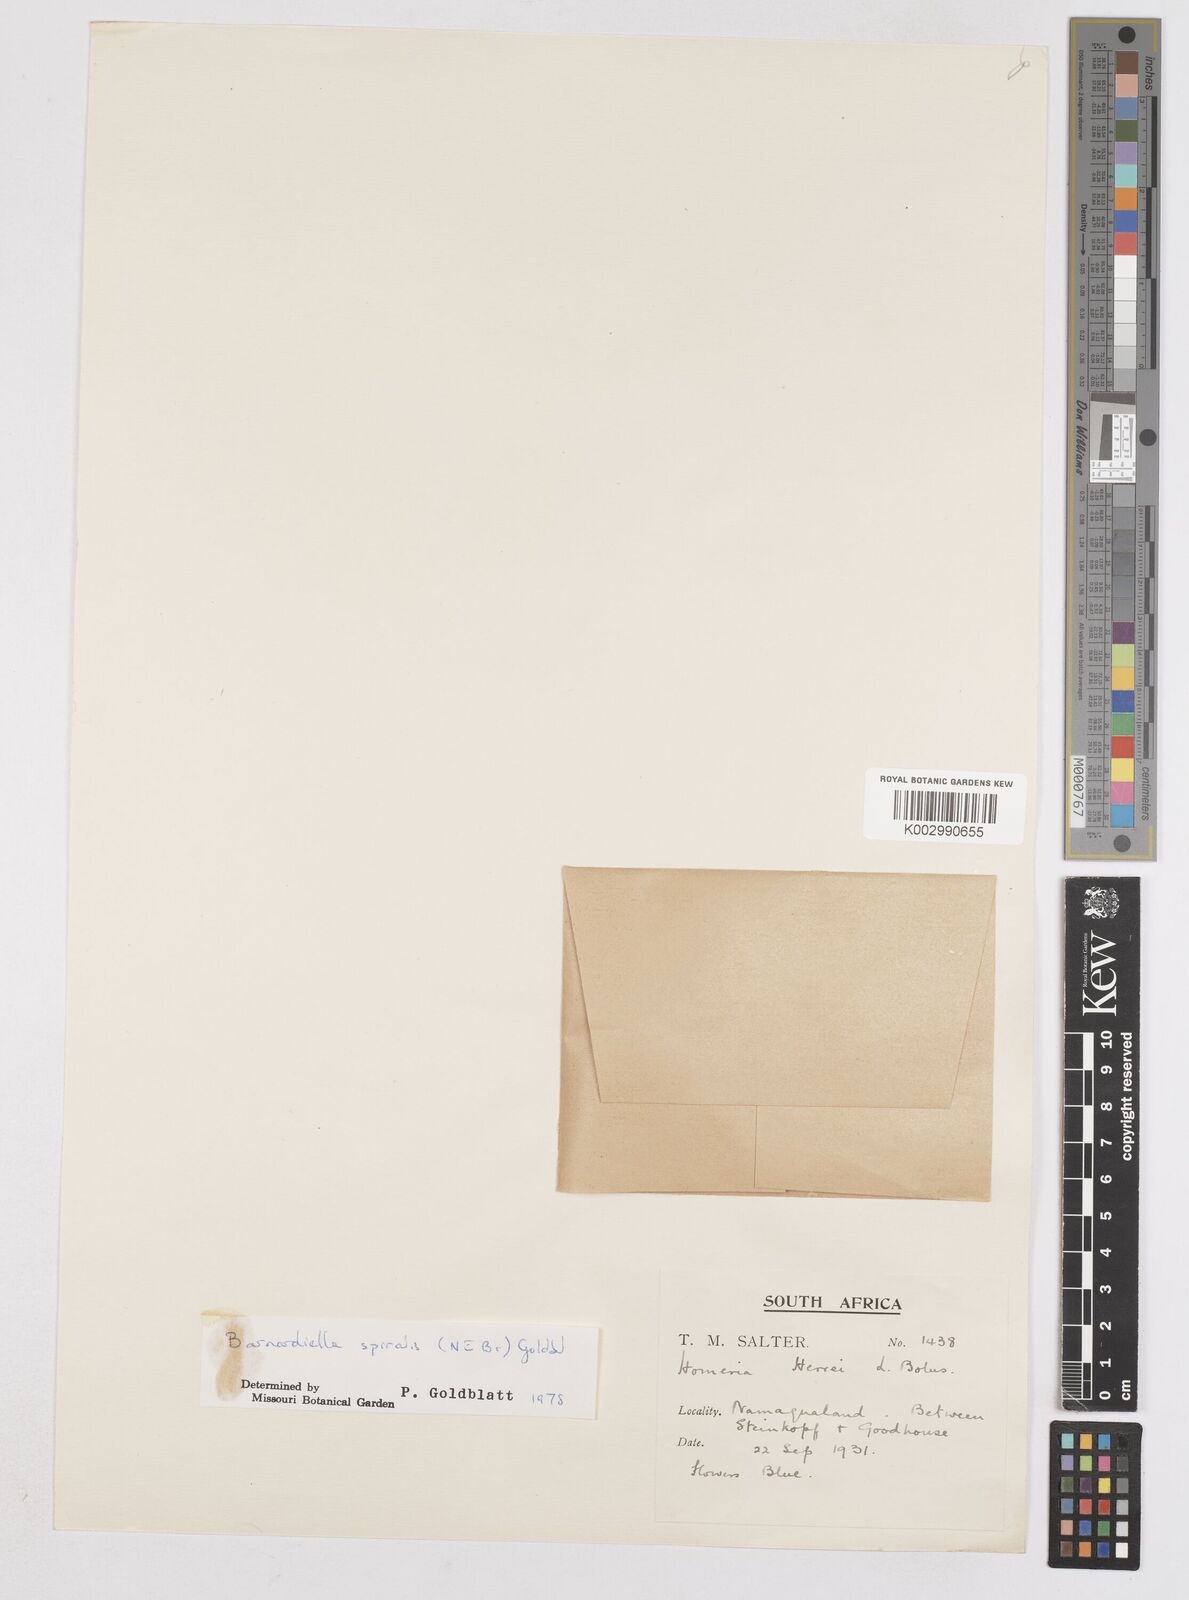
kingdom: Plantae
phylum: Tracheophyta
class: Liliopsida
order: Asparagales
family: Iridaceae
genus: Moraea
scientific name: Moraea herrei
